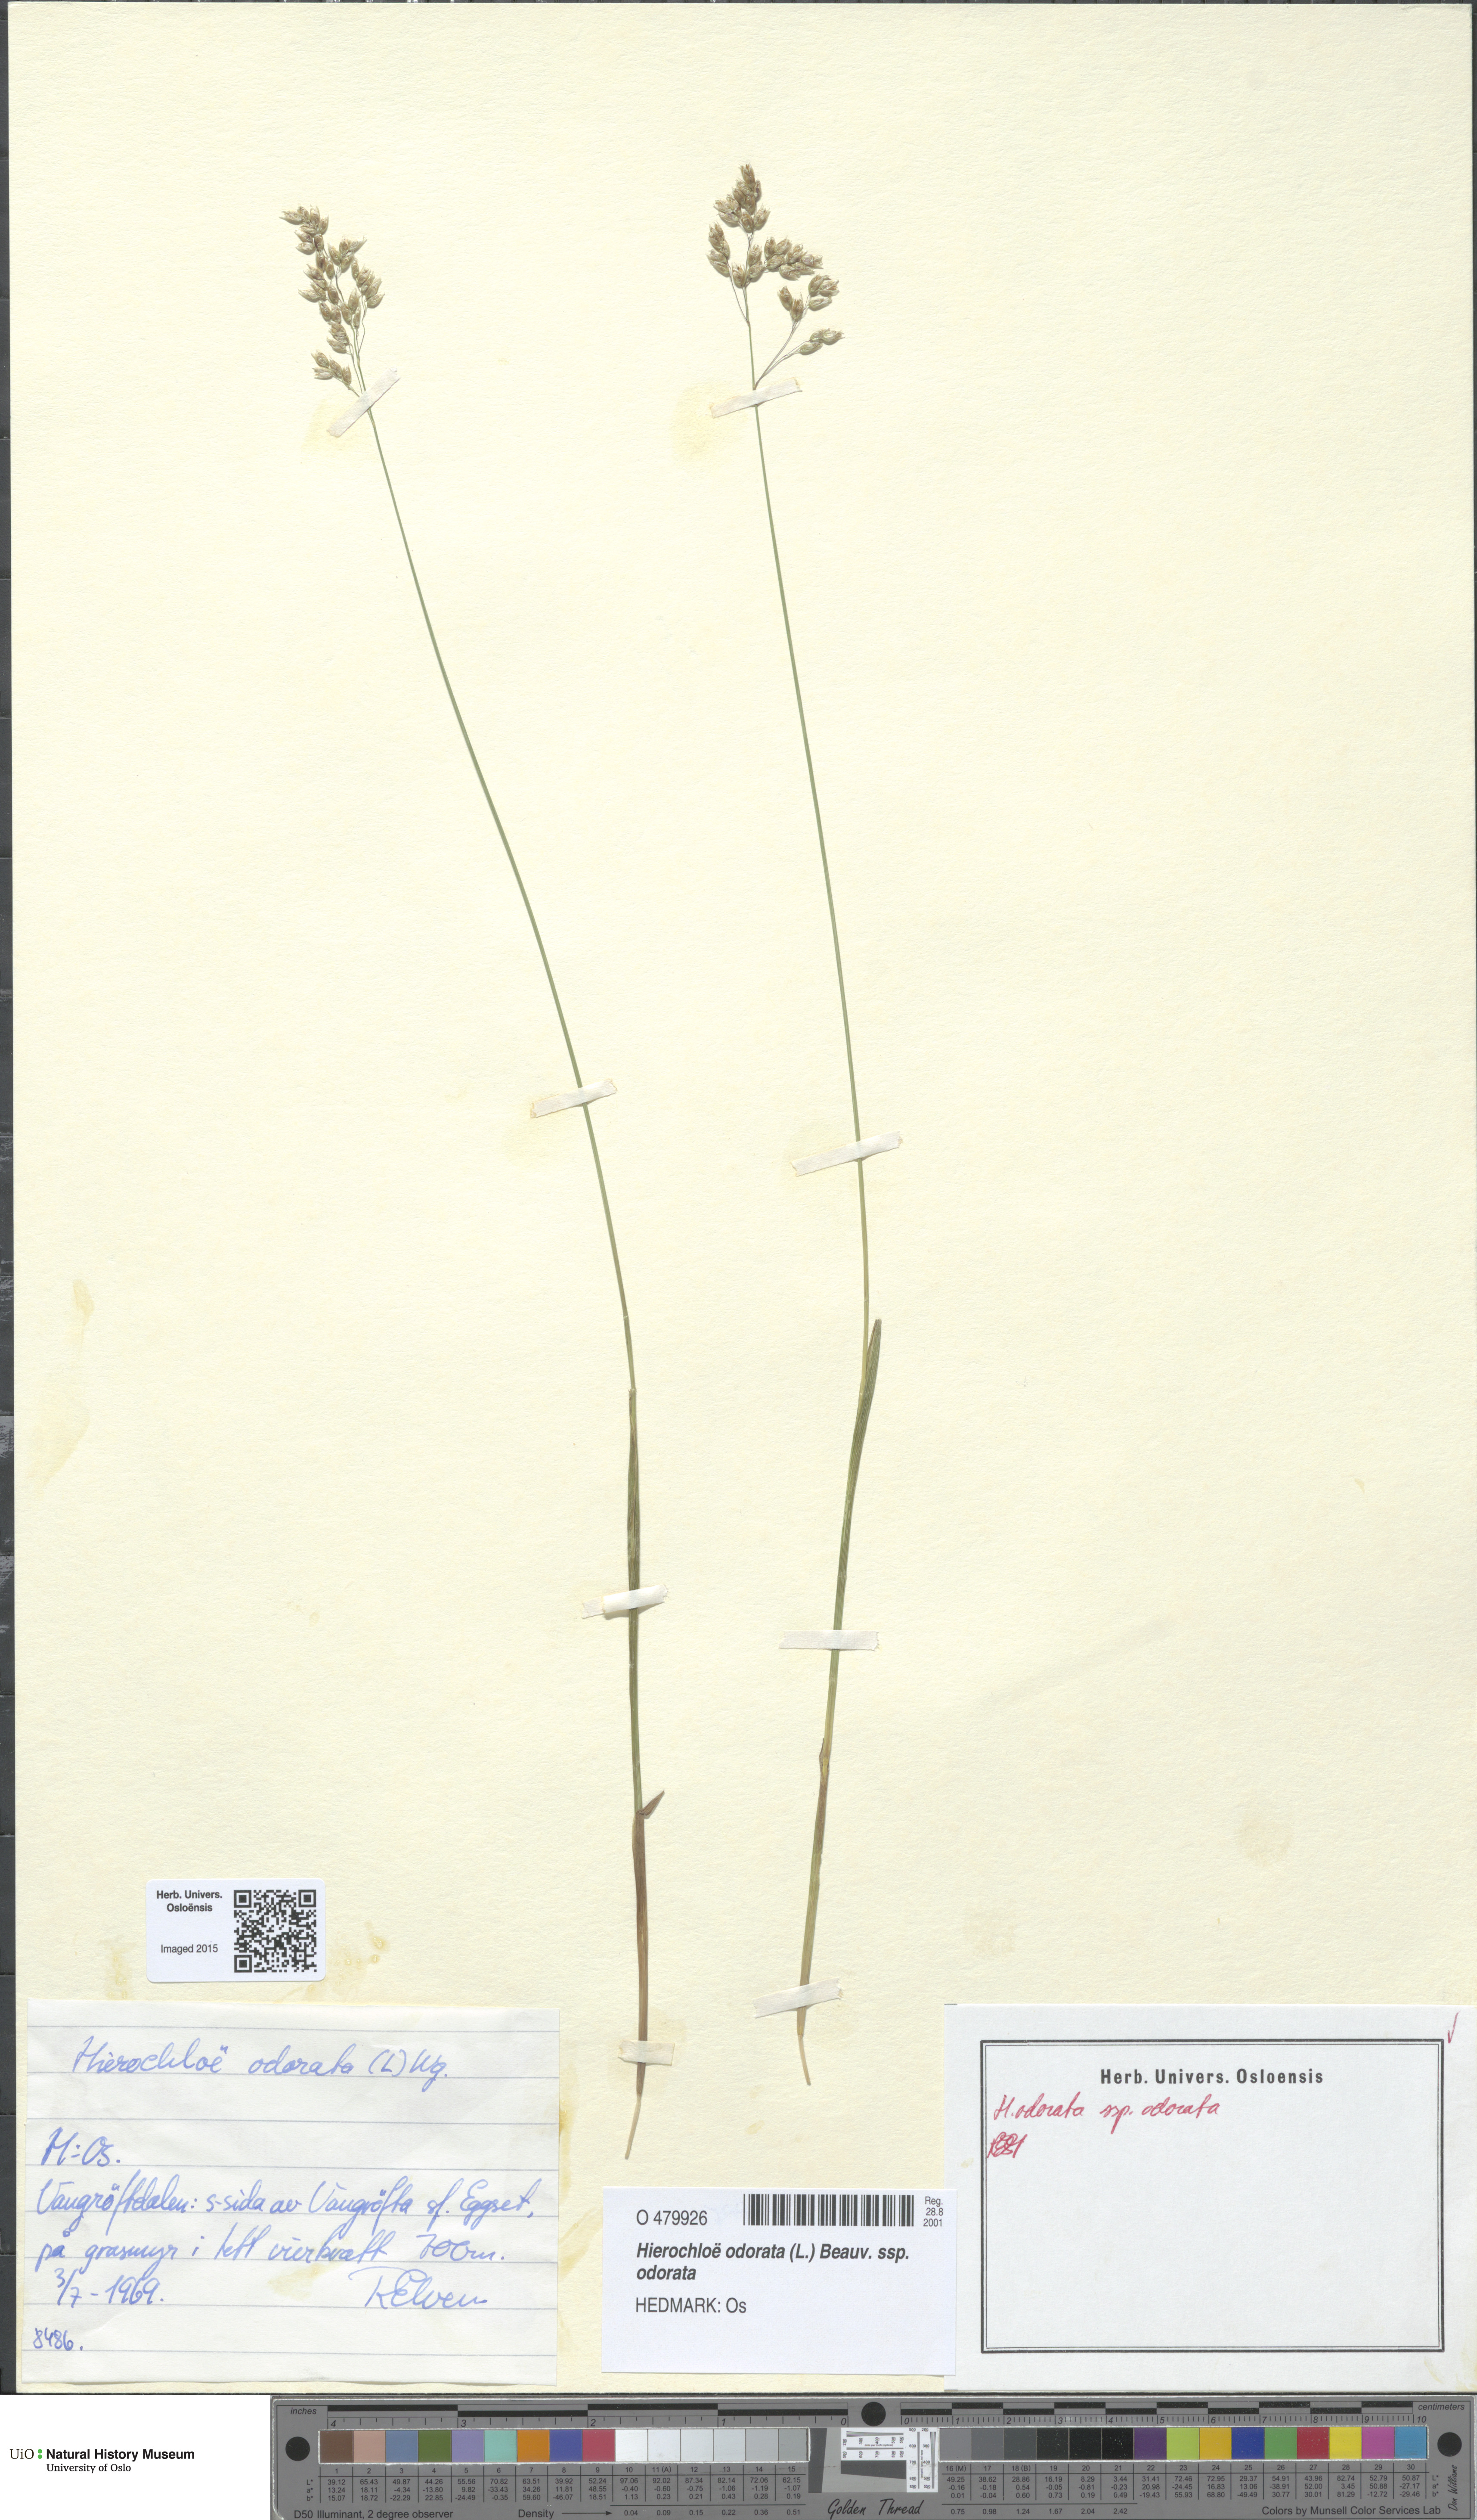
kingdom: Plantae
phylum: Tracheophyta
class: Liliopsida
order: Poales
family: Poaceae
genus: Anthoxanthum
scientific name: Anthoxanthum nitens
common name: Holy grass
